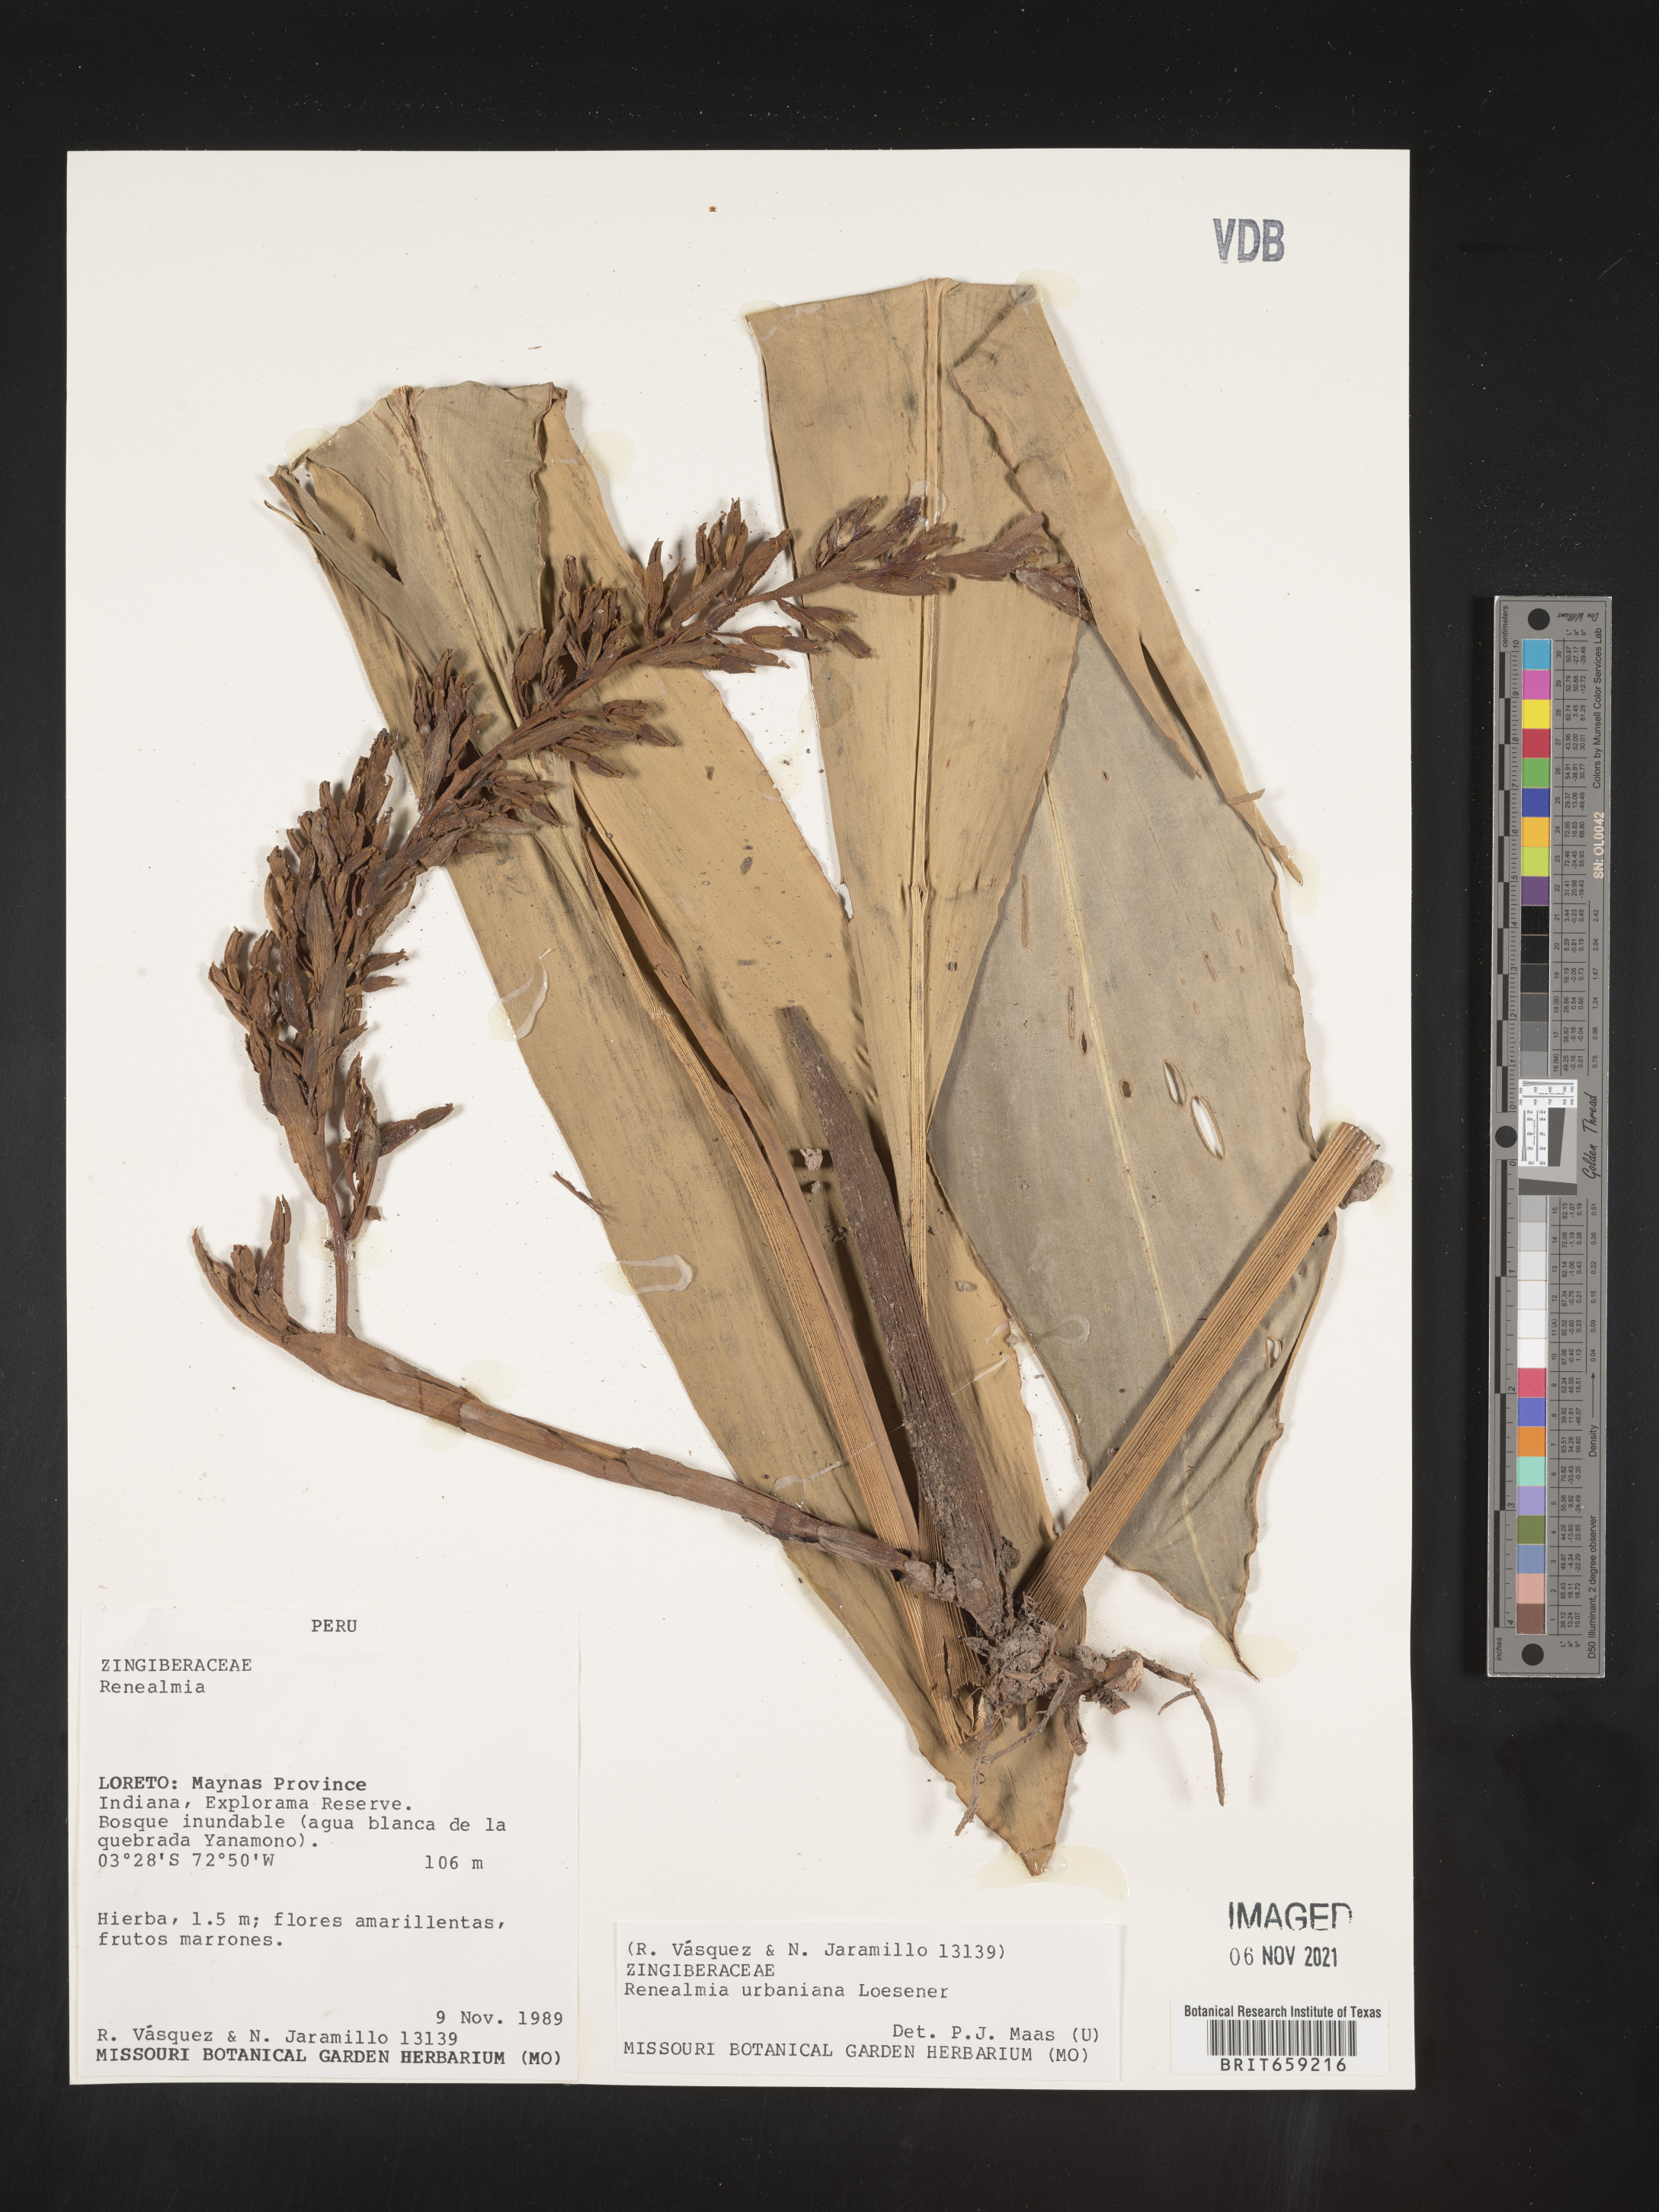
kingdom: Plantae
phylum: Tracheophyta
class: Liliopsida
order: Zingiberales
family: Zingiberaceae
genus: Renealmia
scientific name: Renealmia
